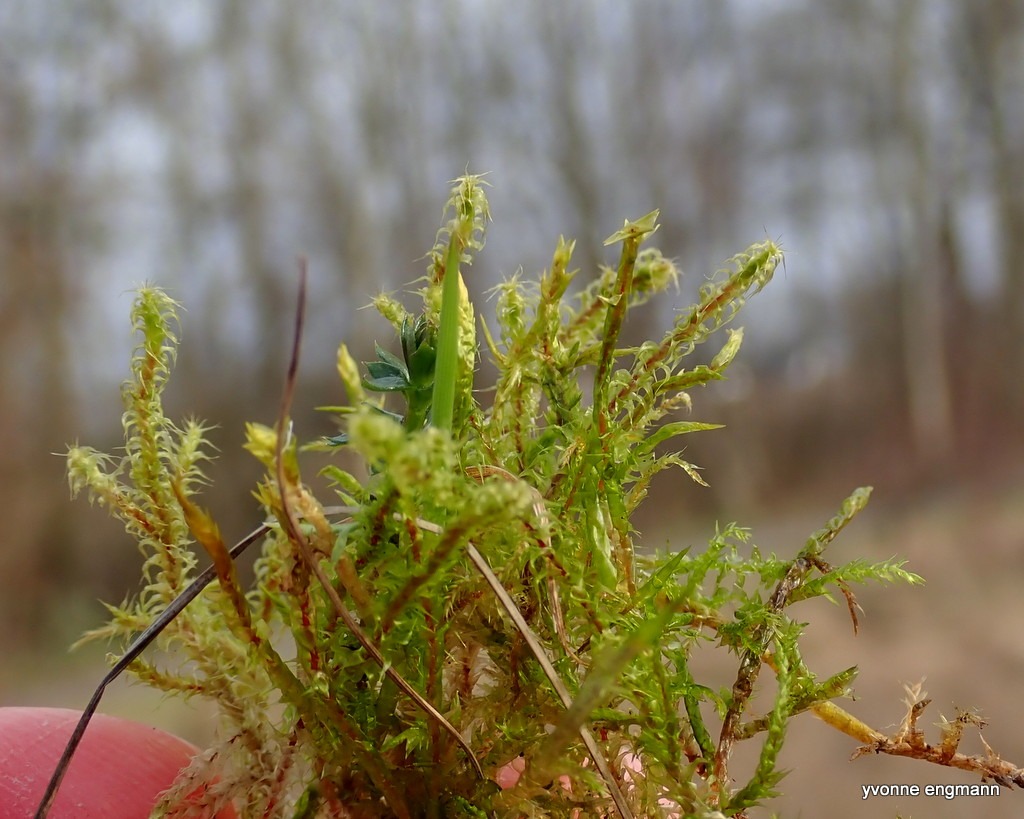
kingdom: Plantae
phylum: Bryophyta
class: Bryopsida
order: Hypnales
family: Hylocomiaceae
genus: Rhytidiadelphus
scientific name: Rhytidiadelphus squarrosus
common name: Plæne-kransemos
